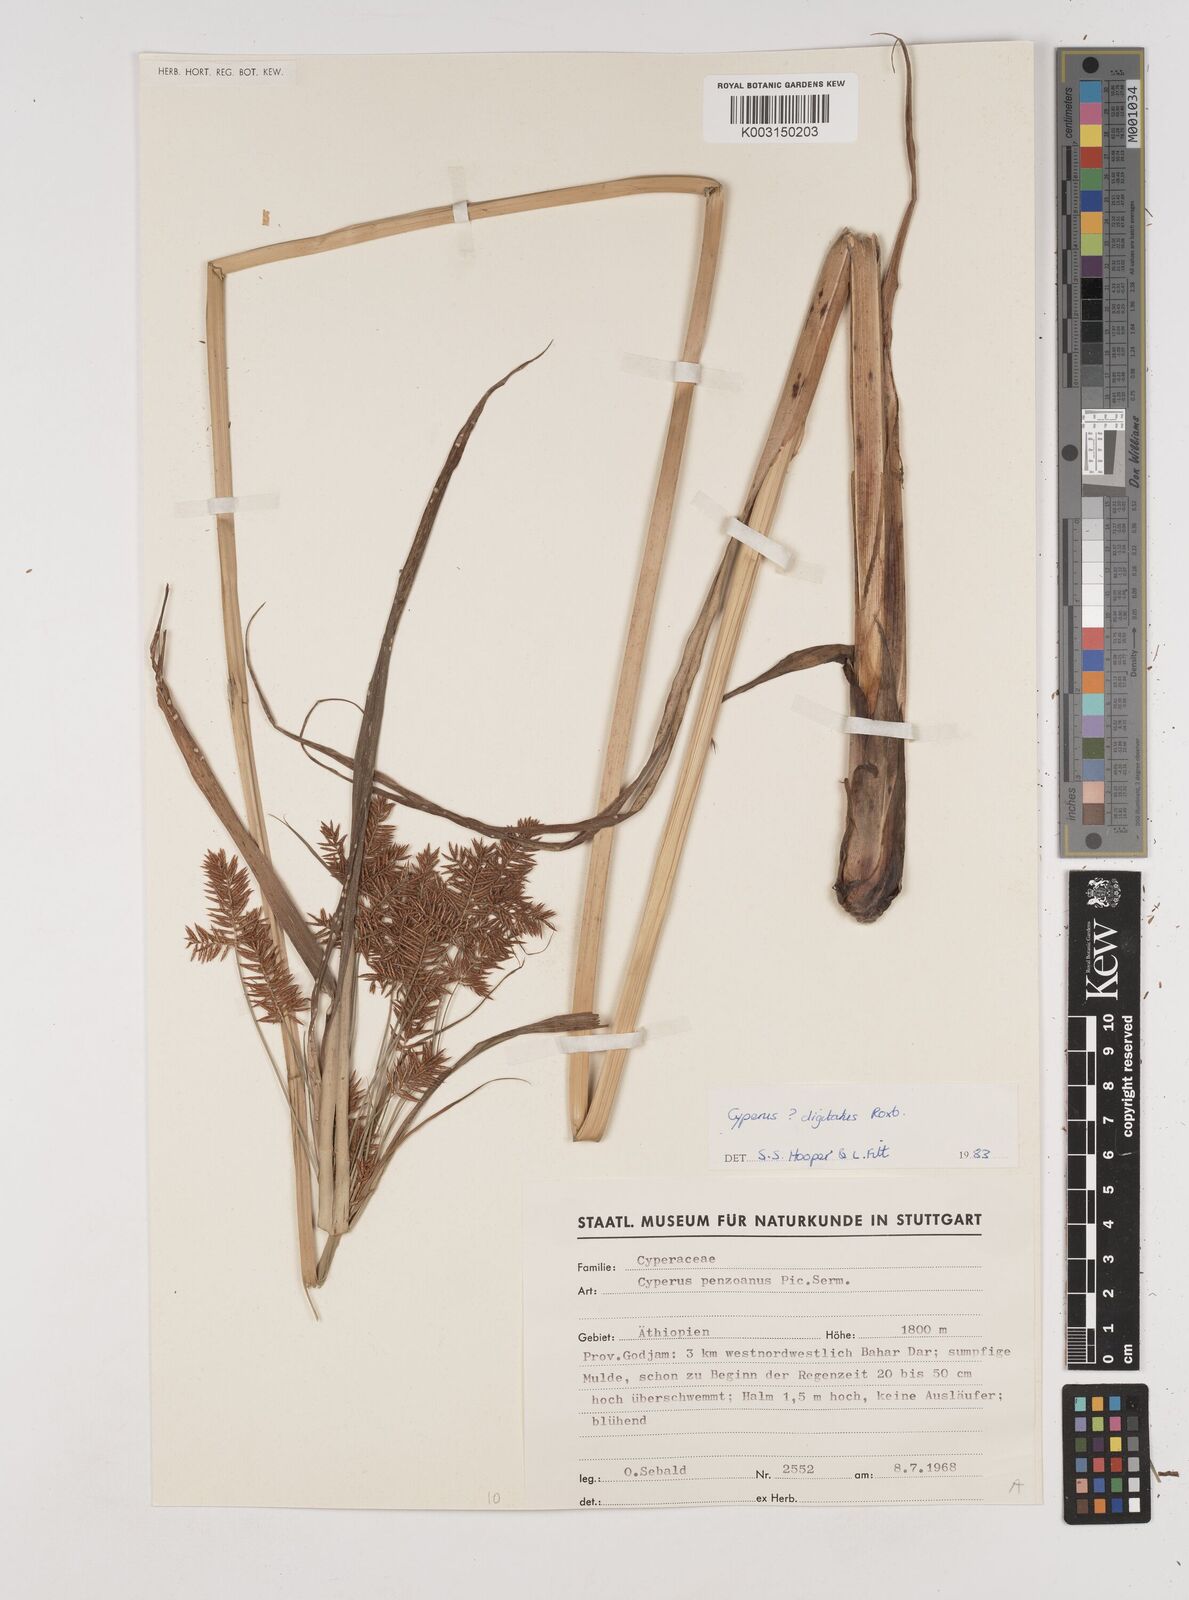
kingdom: Plantae
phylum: Tracheophyta
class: Liliopsida
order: Poales
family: Cyperaceae
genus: Cyperus
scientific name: Cyperus imbricatus
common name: Shingle flatsedge
